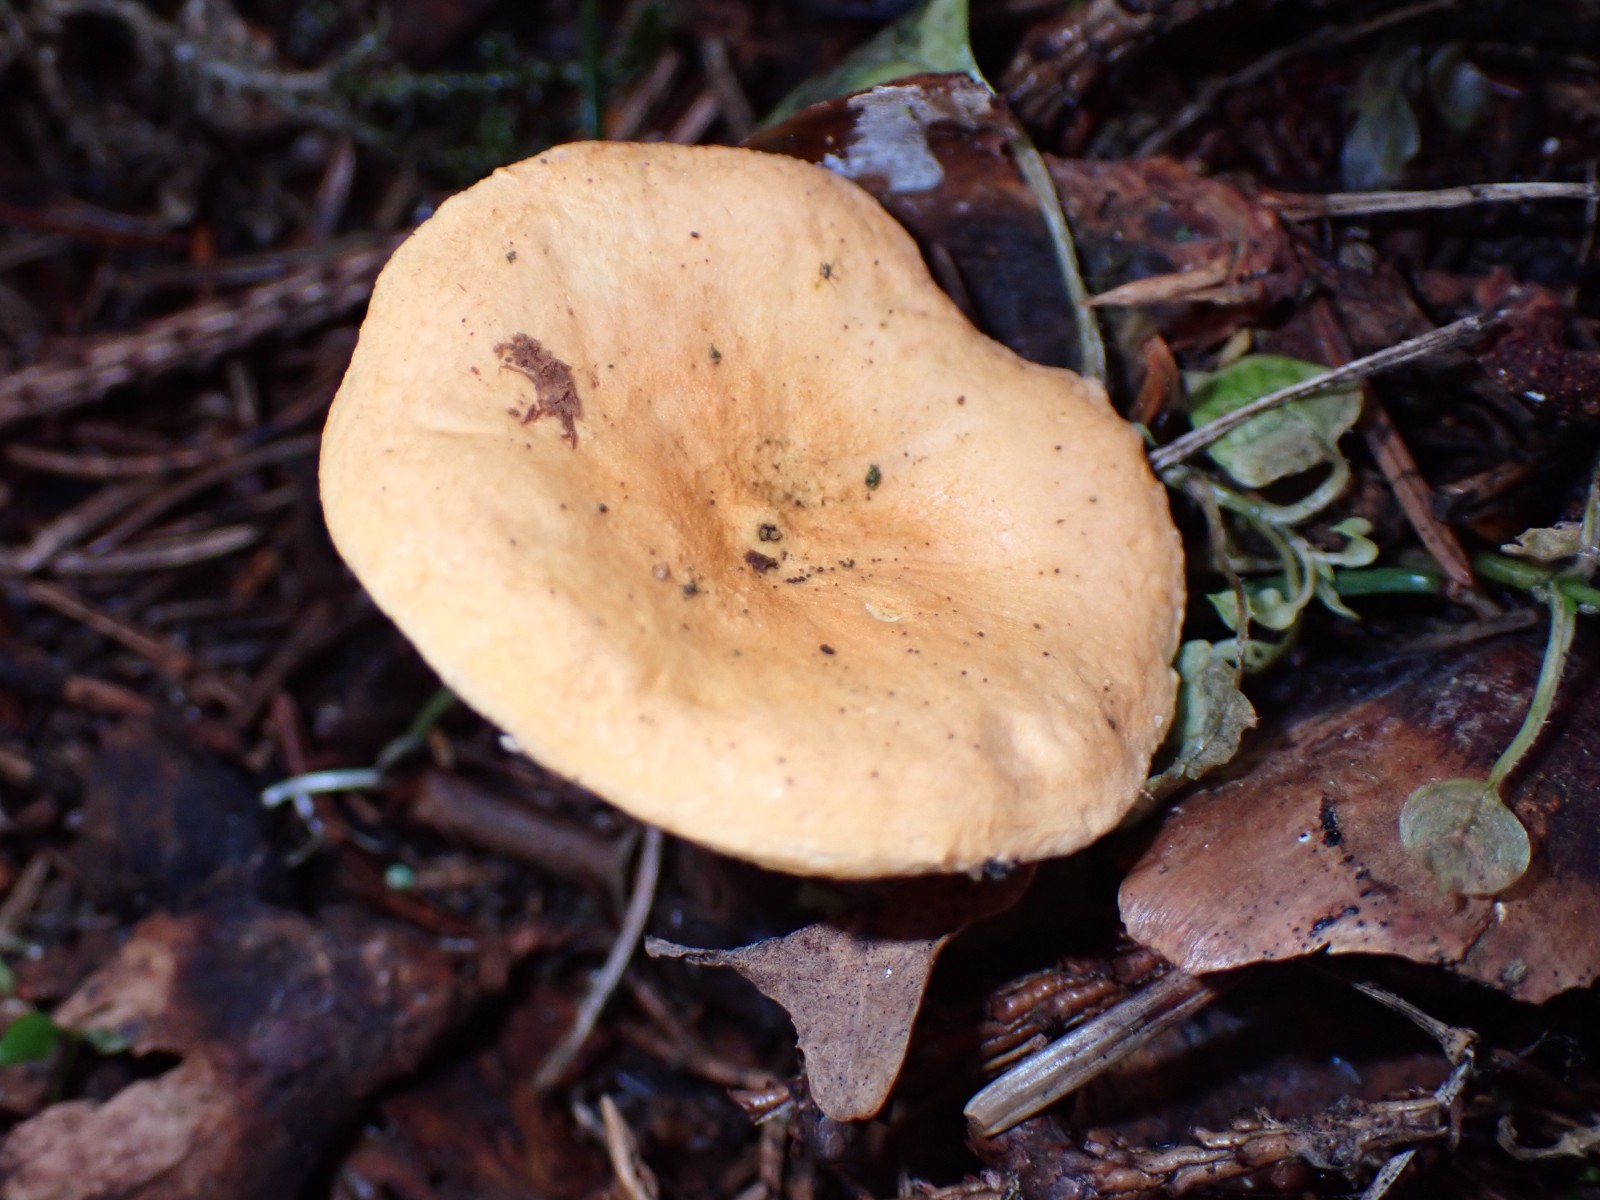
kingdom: Fungi
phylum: Basidiomycota
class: Agaricomycetes
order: Boletales
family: Hygrophoropsidaceae
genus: Hygrophoropsis
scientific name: Hygrophoropsis
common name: orangekantarel
